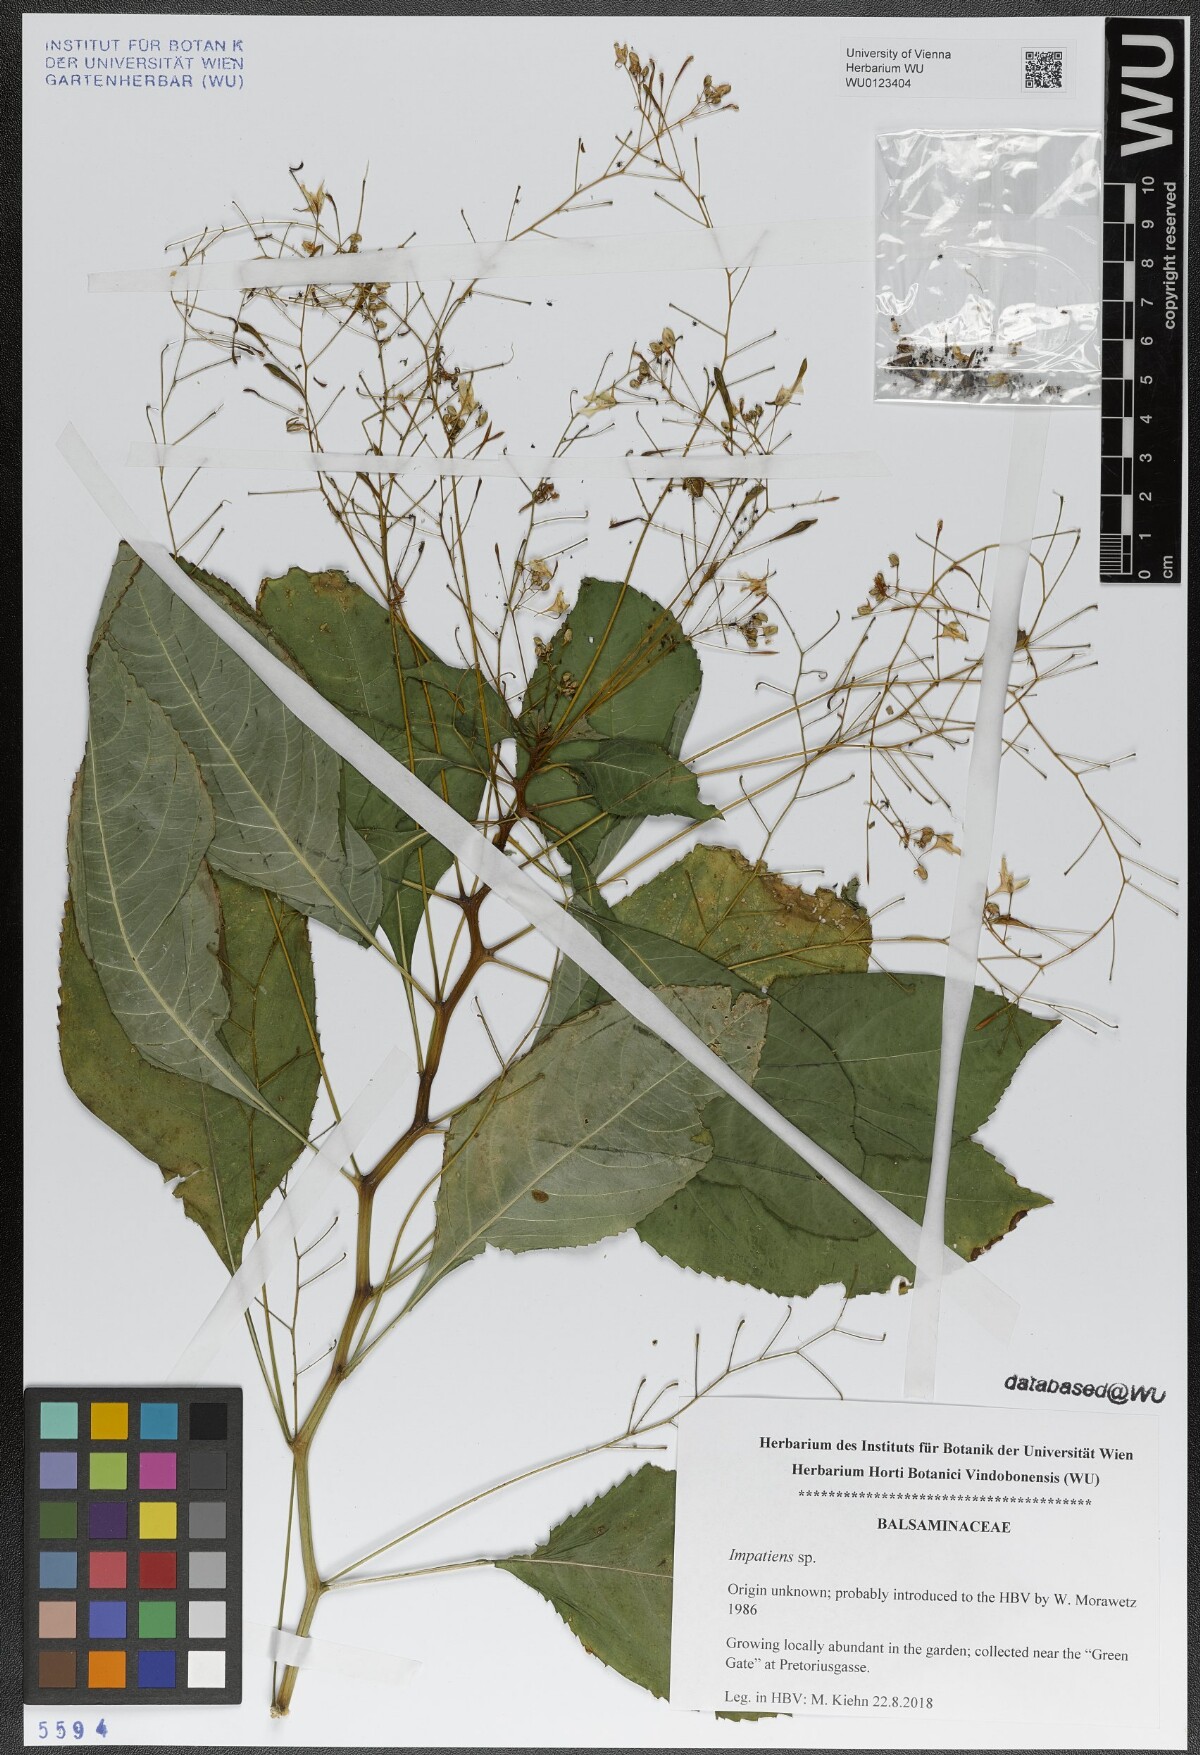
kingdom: Plantae
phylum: Tracheophyta
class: Magnoliopsida
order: Ericales
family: Balsaminaceae
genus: Impatiens
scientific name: Impatiens
